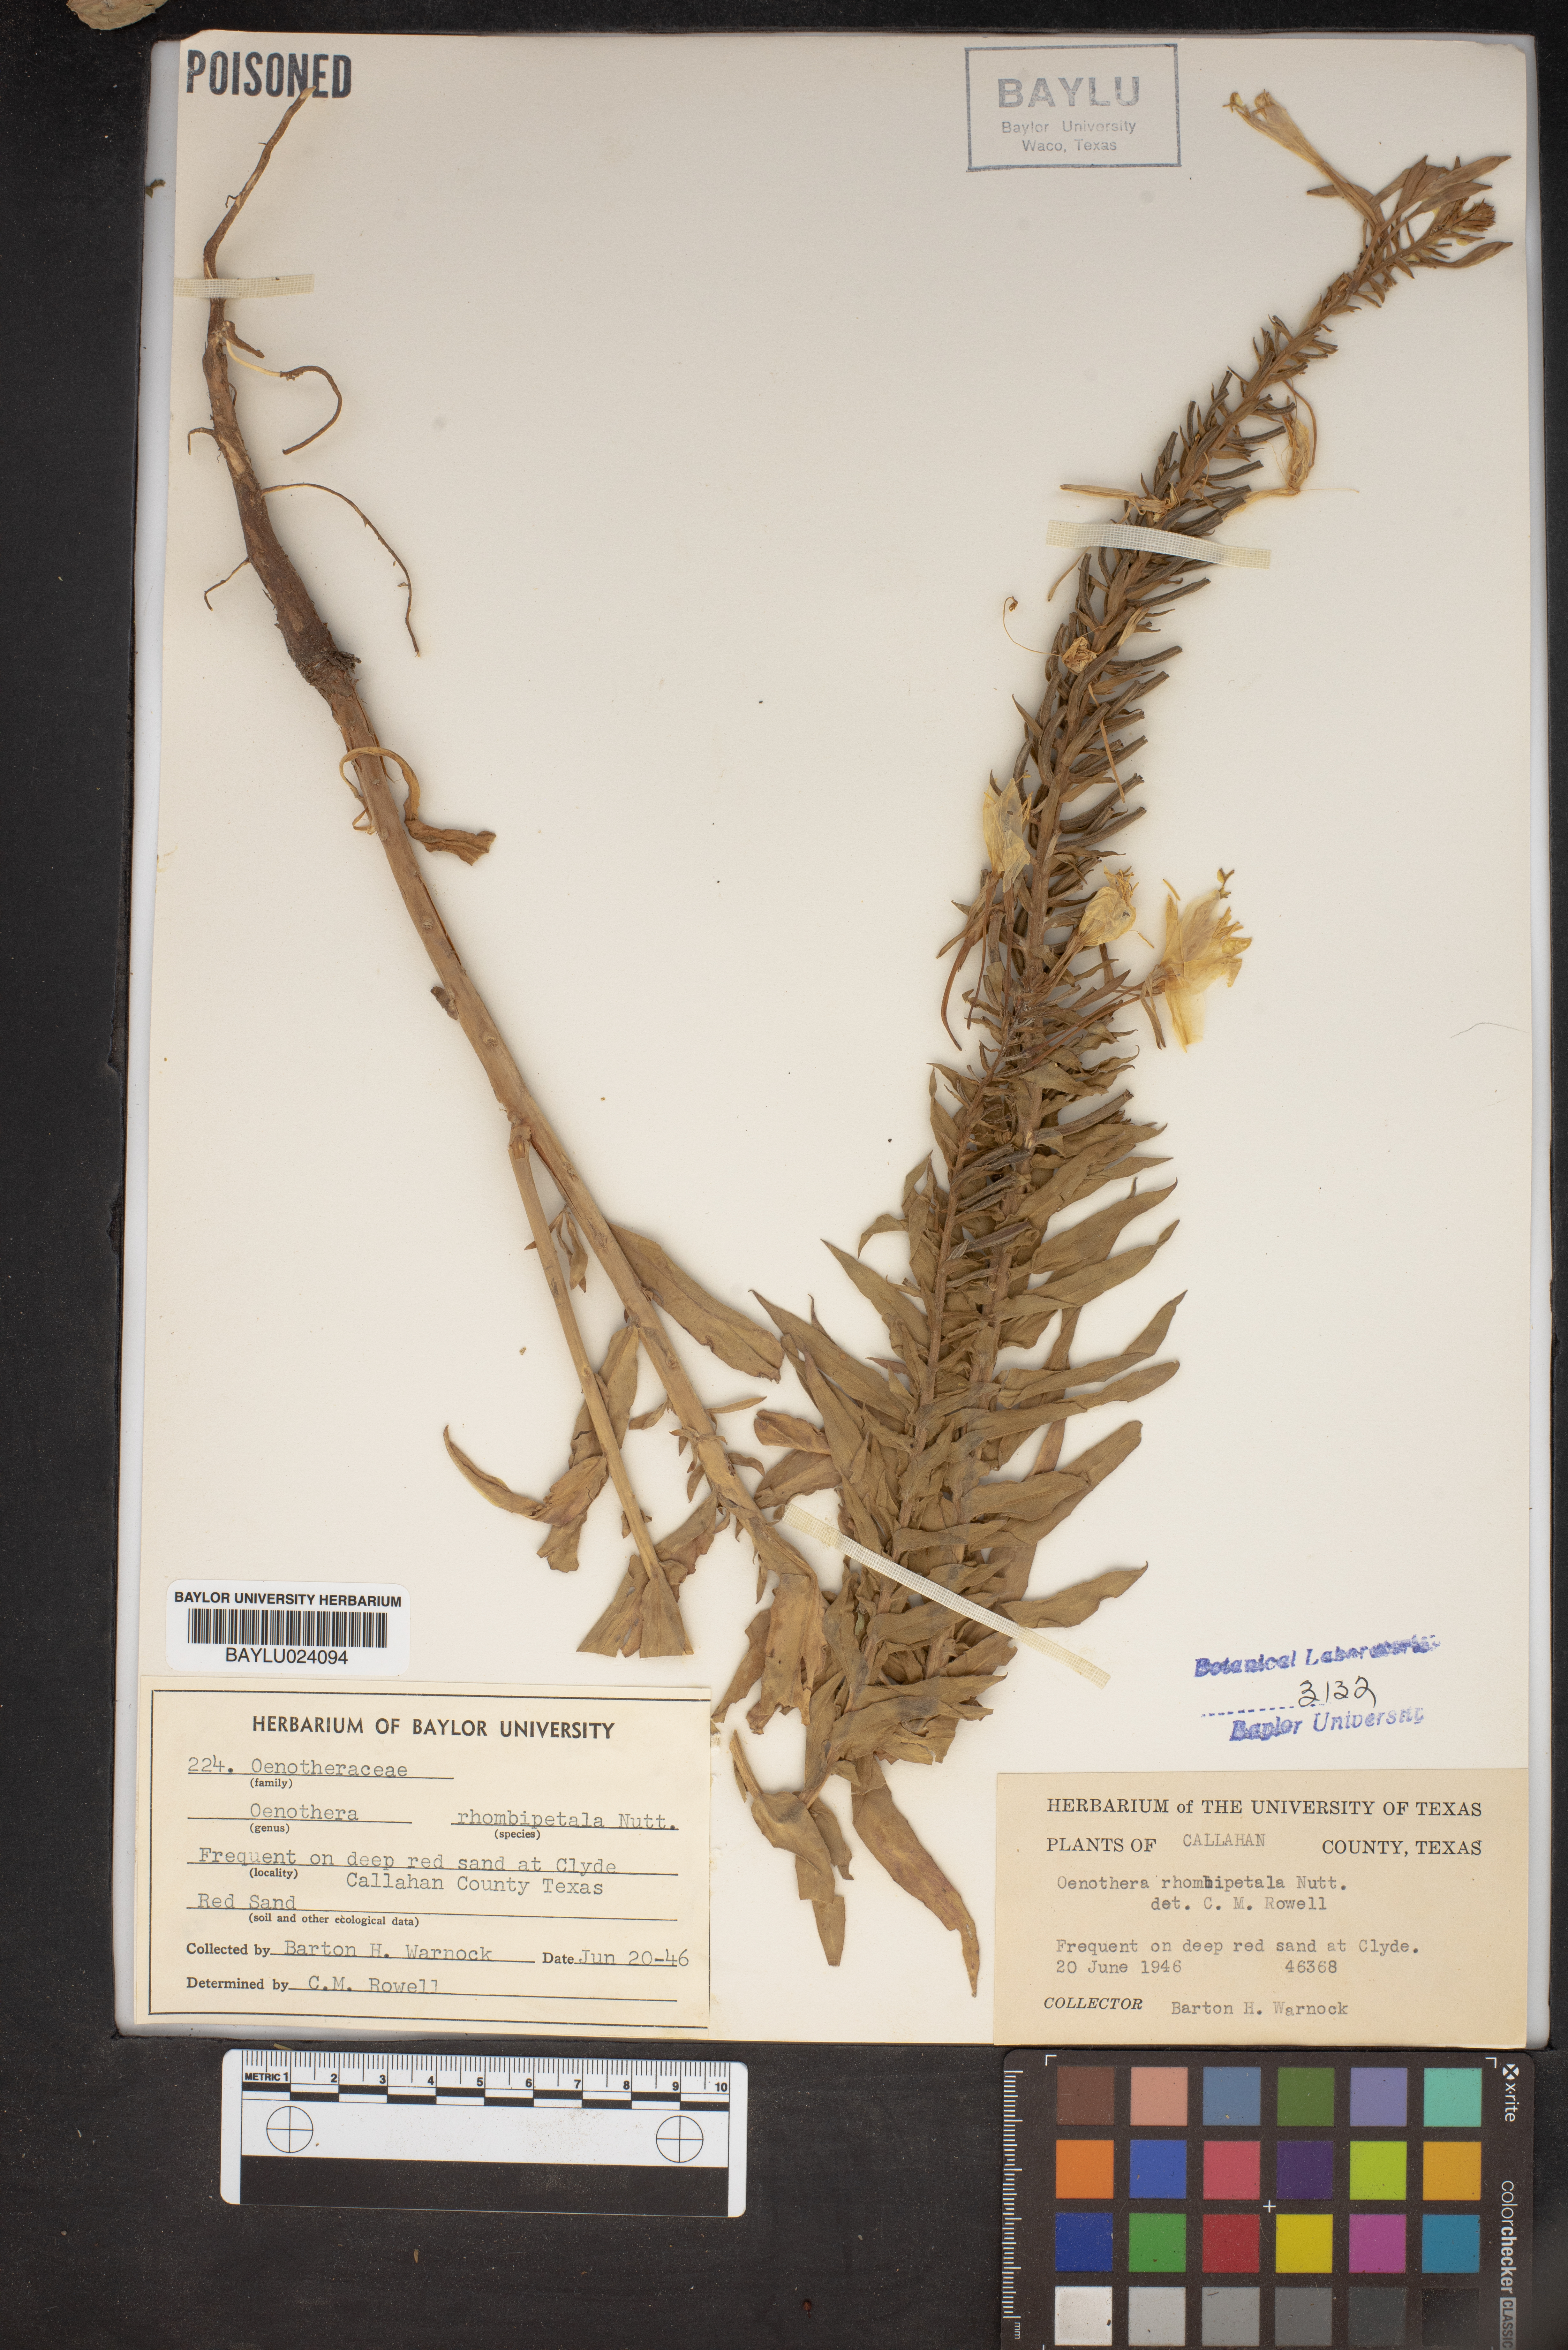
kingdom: Plantae
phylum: Tracheophyta
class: Magnoliopsida
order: Myrtales
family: Onagraceae
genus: Oenothera
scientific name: Oenothera rhombipetala
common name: Four-points evening-primrose
